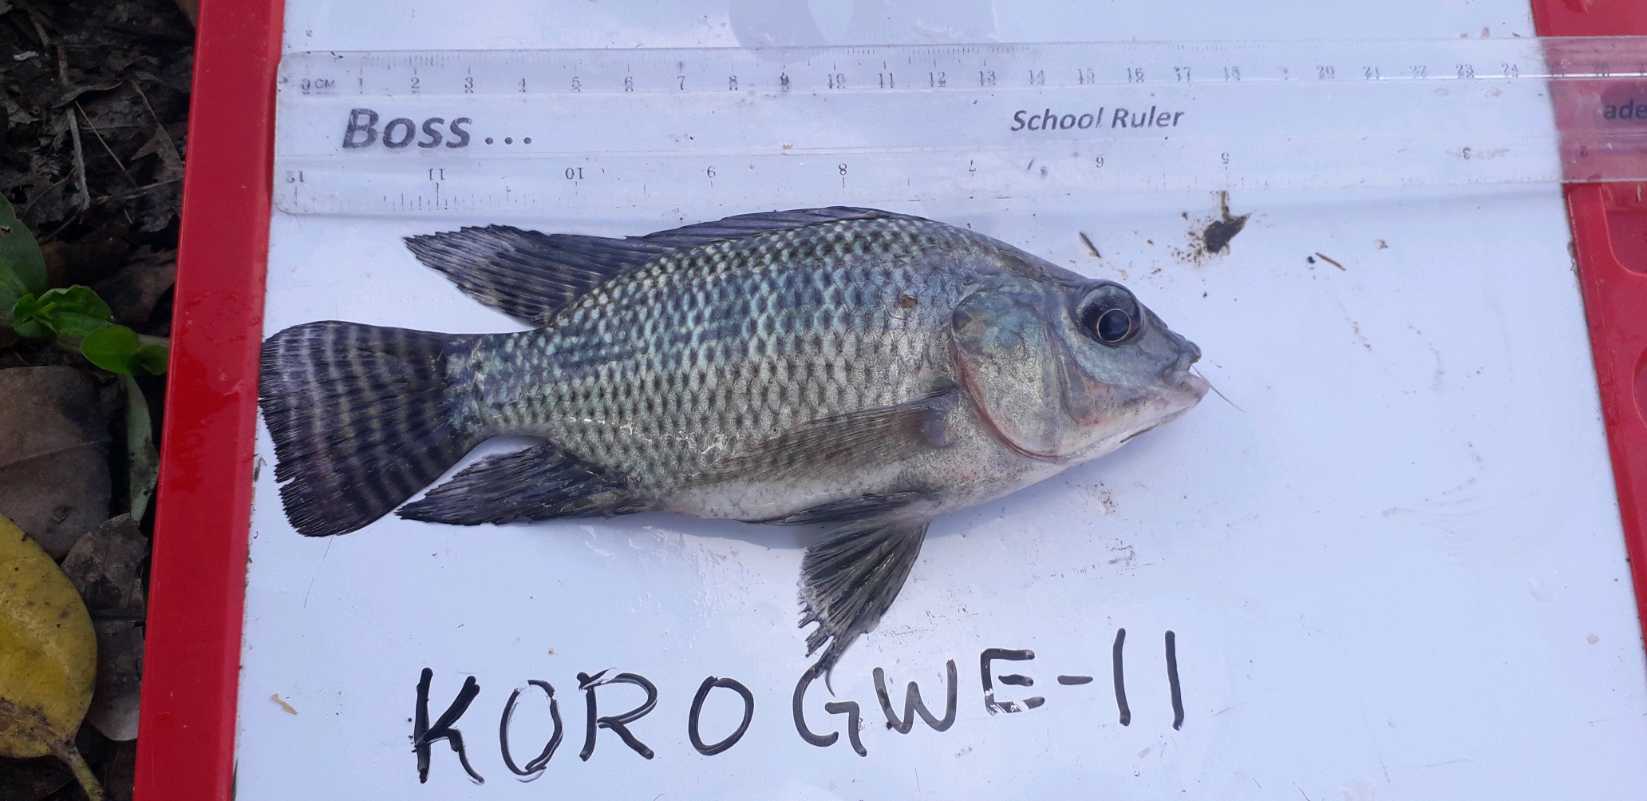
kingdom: Animalia
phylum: Chordata
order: Perciformes
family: Cichlidae
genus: Oreochromis
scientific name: Oreochromis niloticus
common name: Nile tilapia
